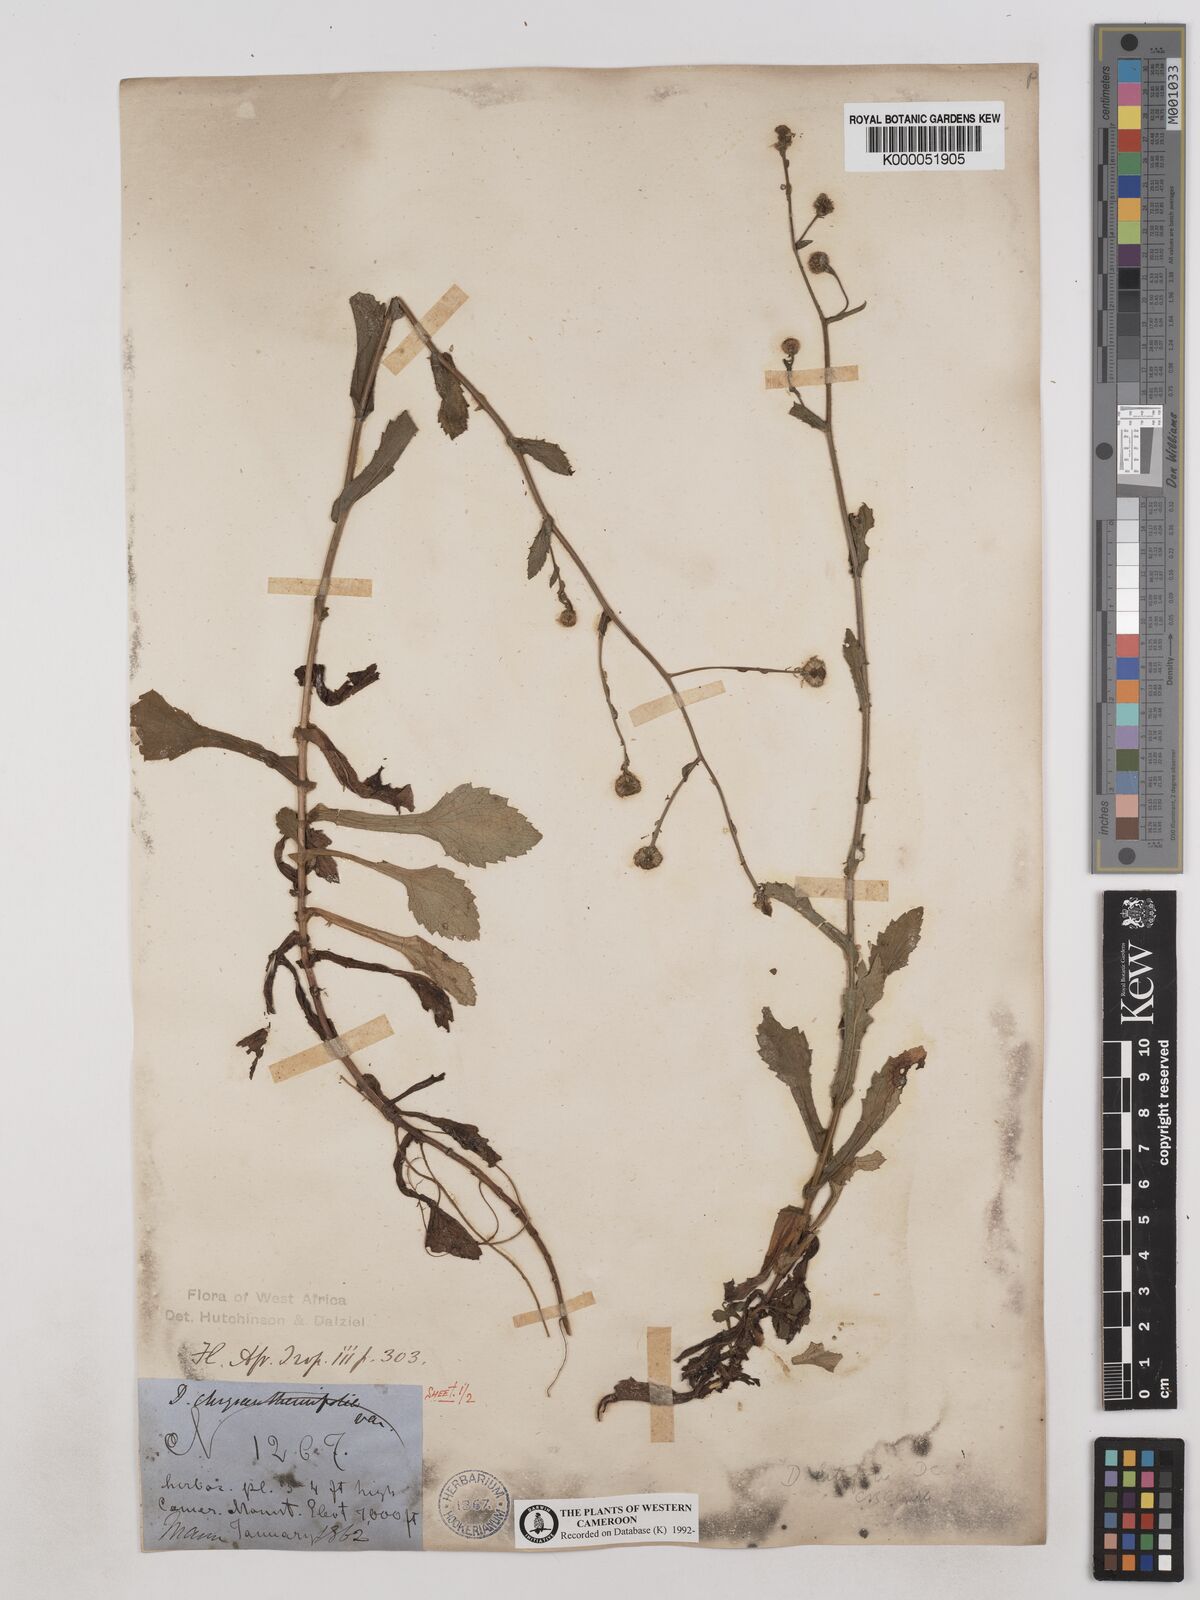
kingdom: Plantae
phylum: Tracheophyta
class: Magnoliopsida
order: Asterales
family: Asteraceae
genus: Dichrocephala
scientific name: Dichrocephala chrysanthemifolia
